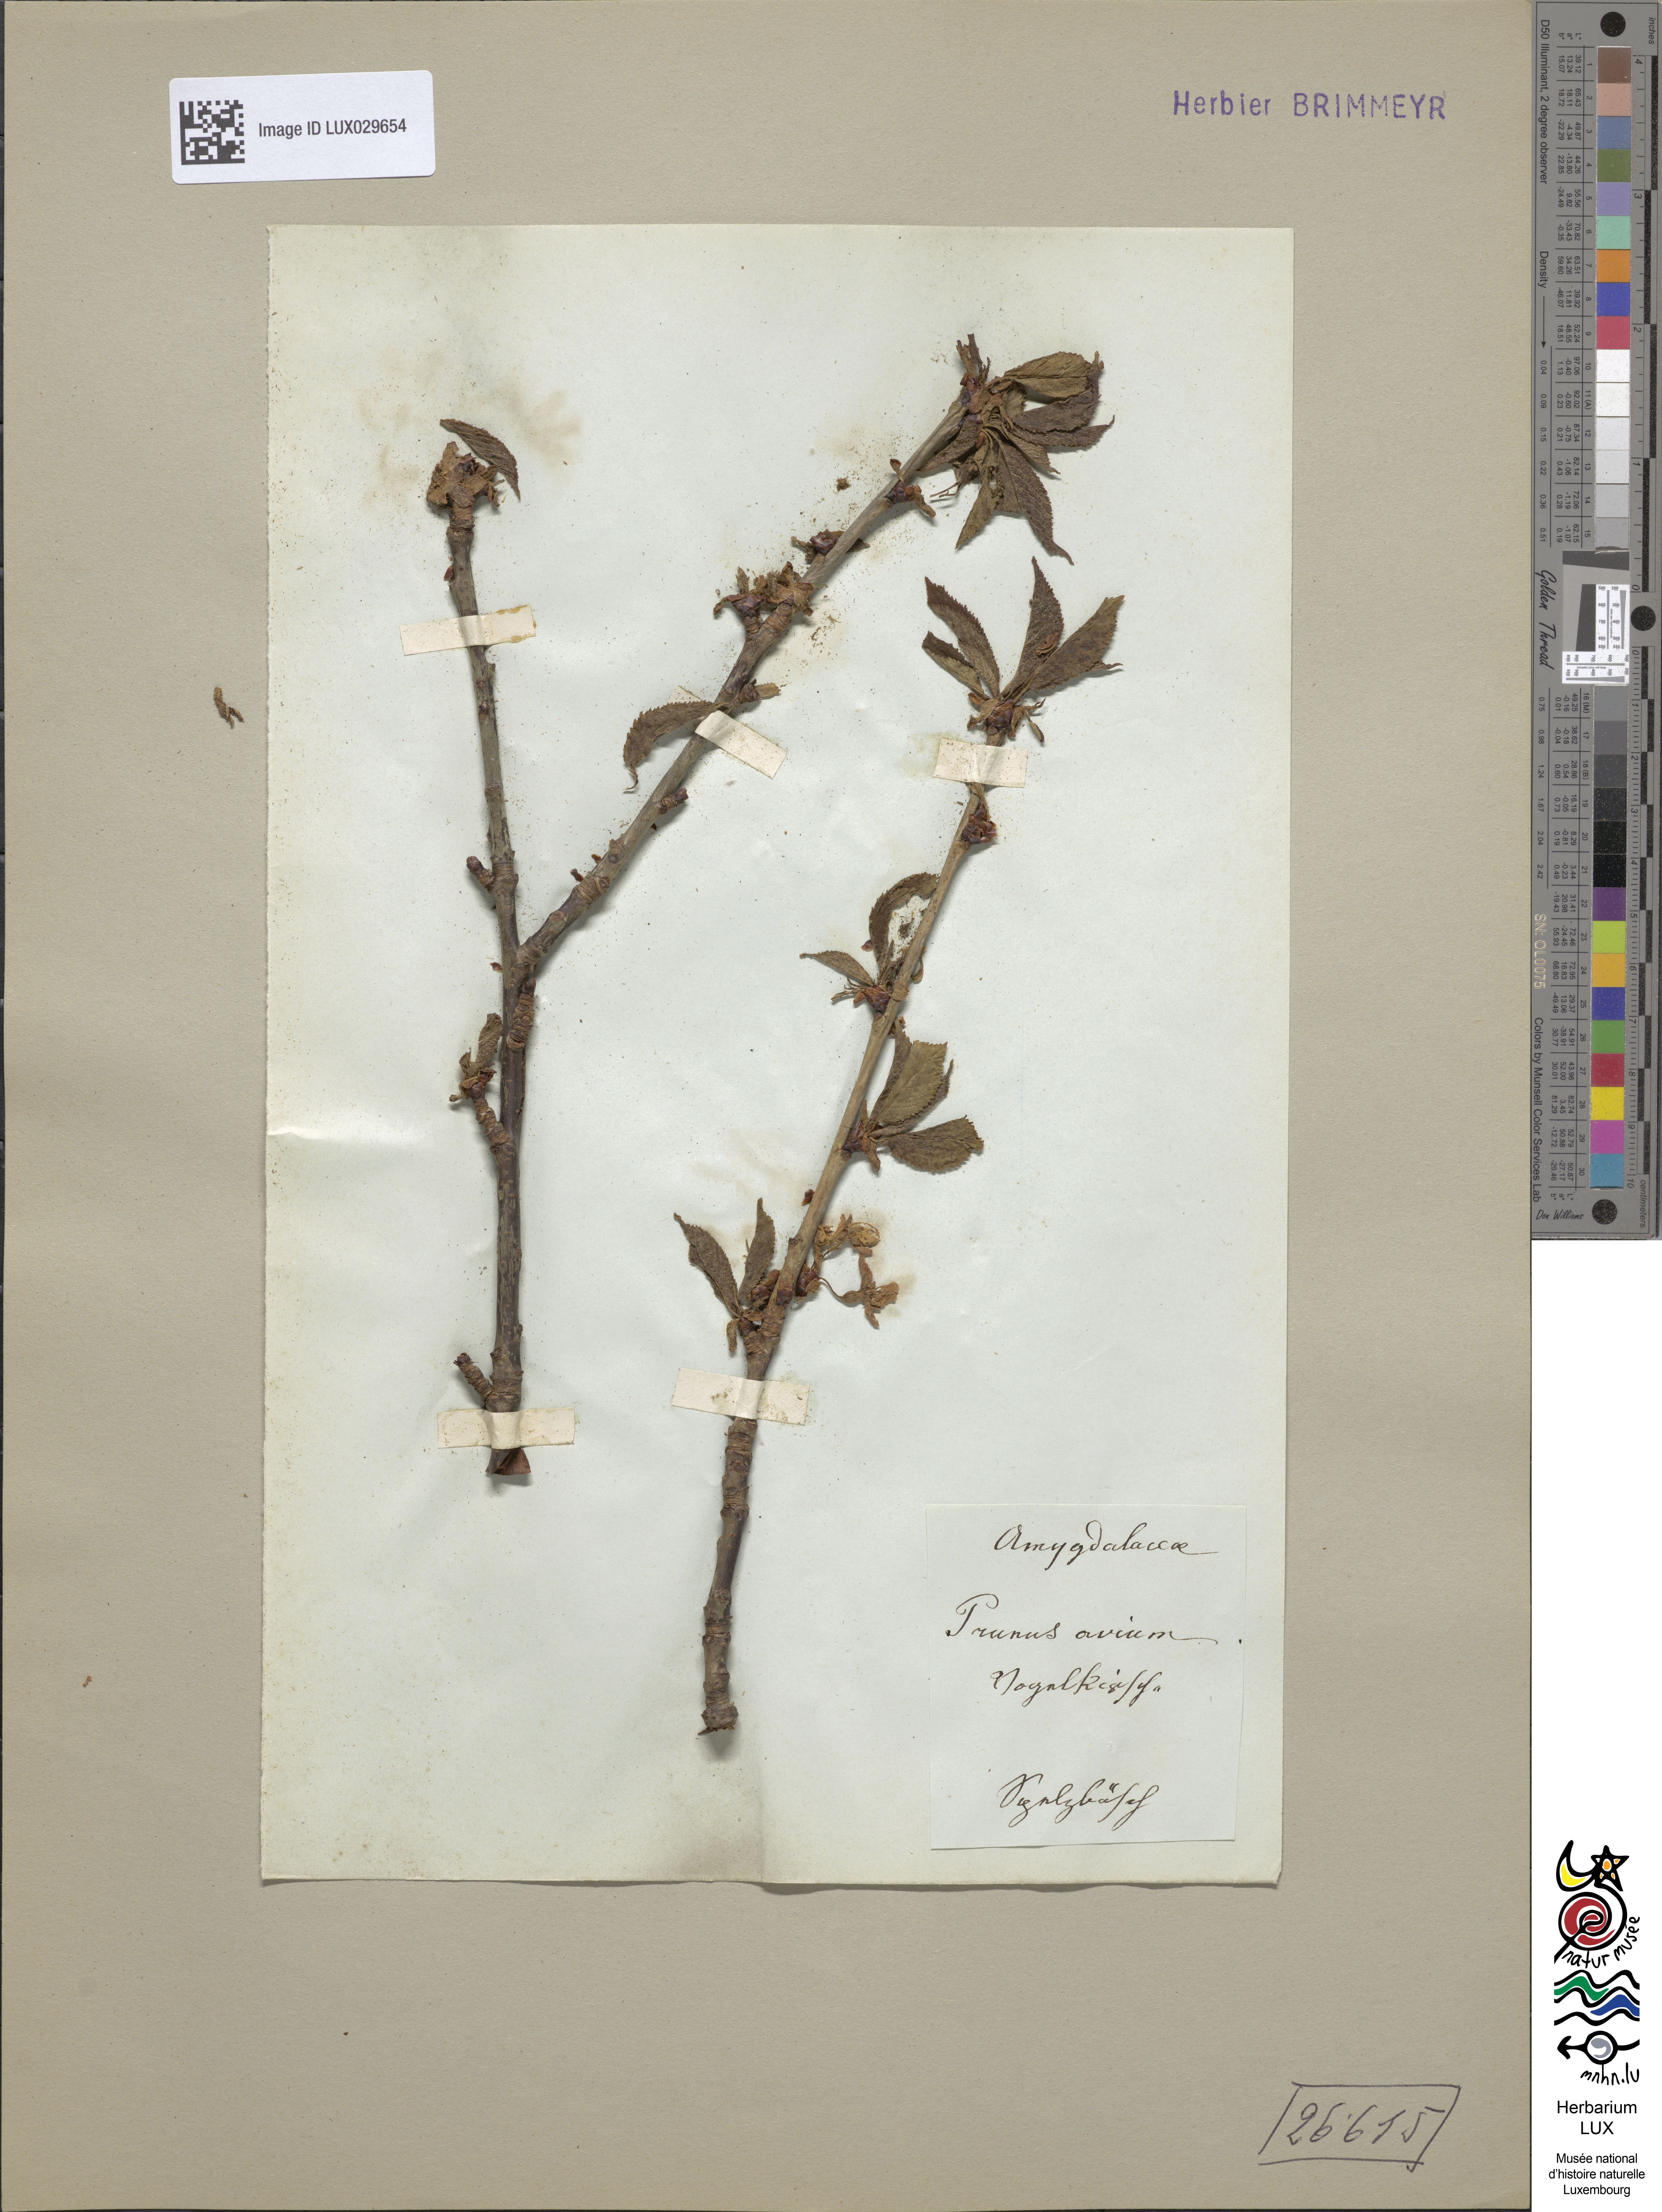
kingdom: Plantae
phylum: Tracheophyta
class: Magnoliopsida
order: Rosales
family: Rosaceae
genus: Prunus
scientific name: Prunus avium
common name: Sweet cherry
